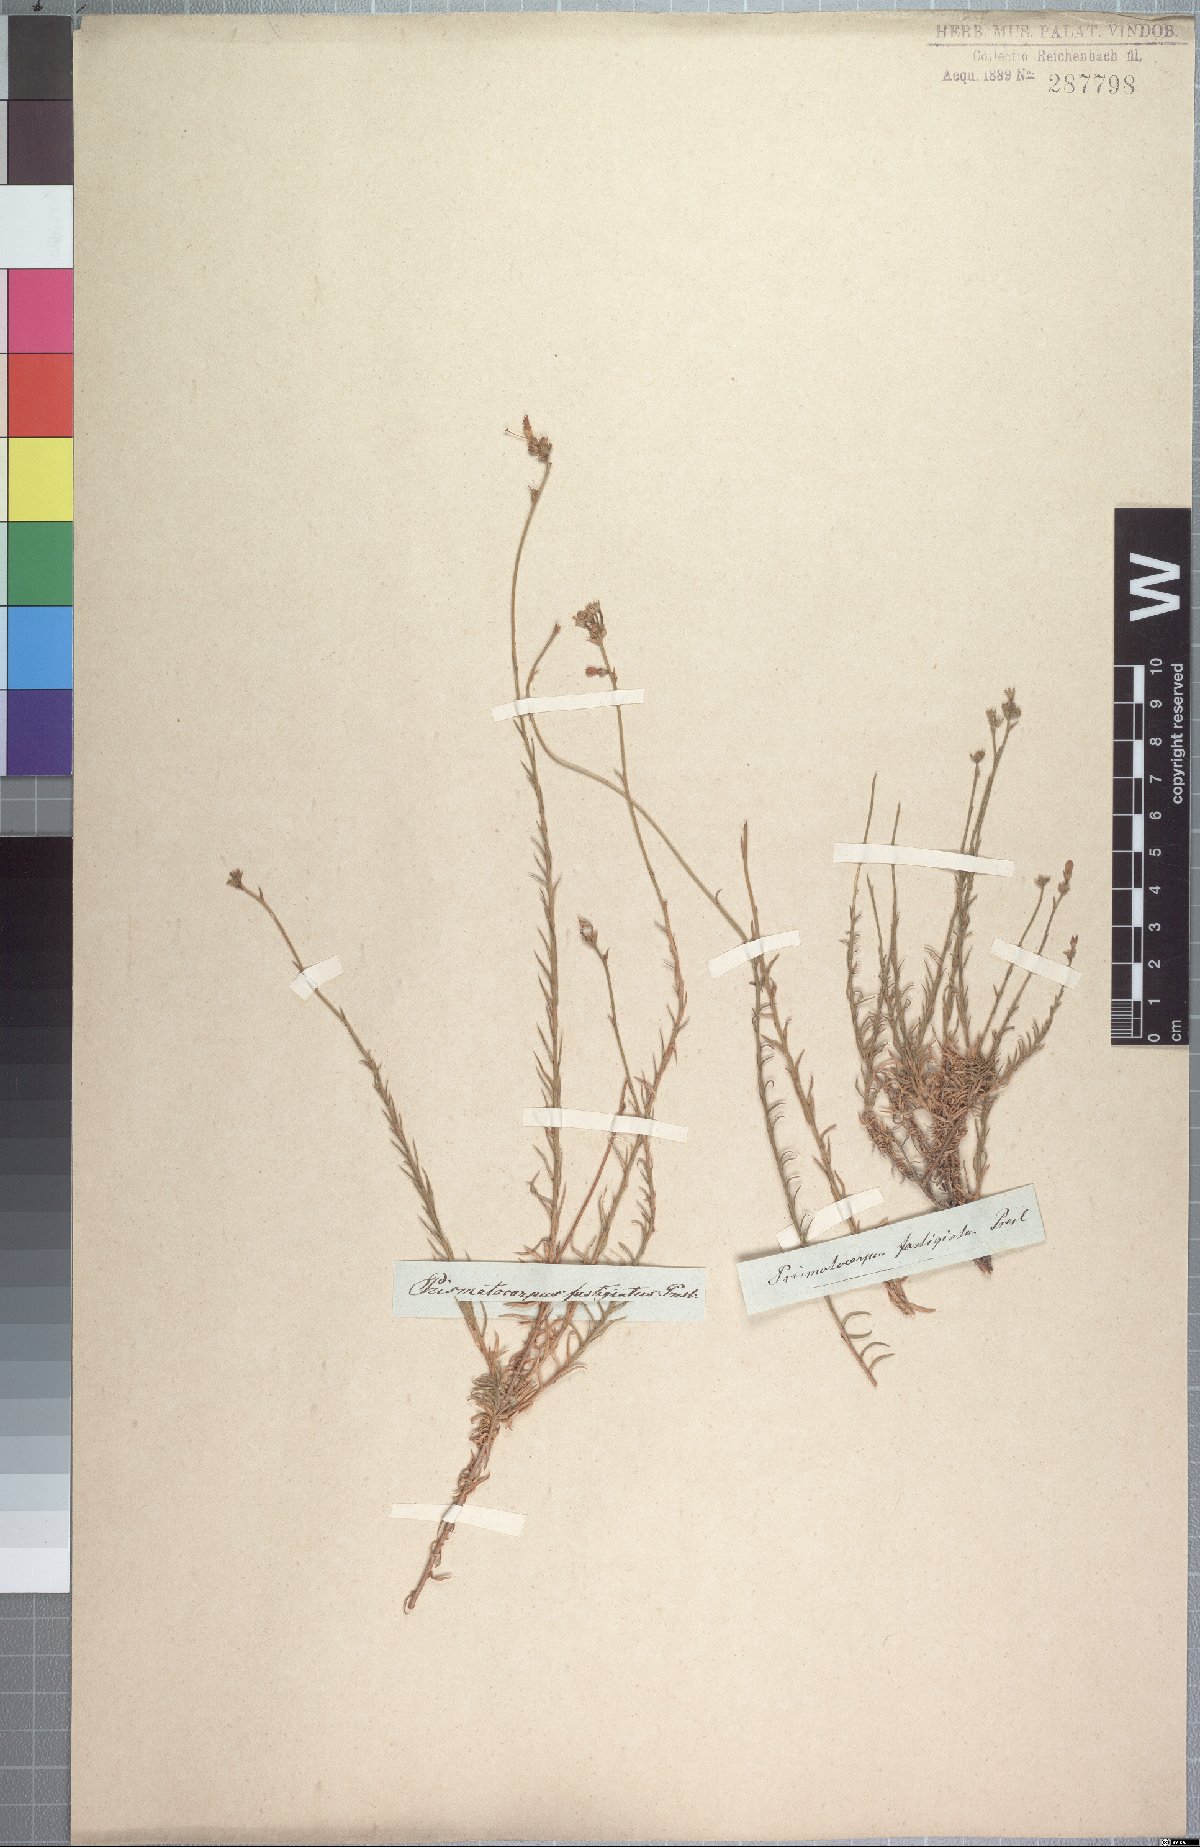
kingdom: Plantae
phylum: Tracheophyta
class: Magnoliopsida
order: Asterales
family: Campanulaceae
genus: Prismatocarpus
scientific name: Prismatocarpus fastigiatus
